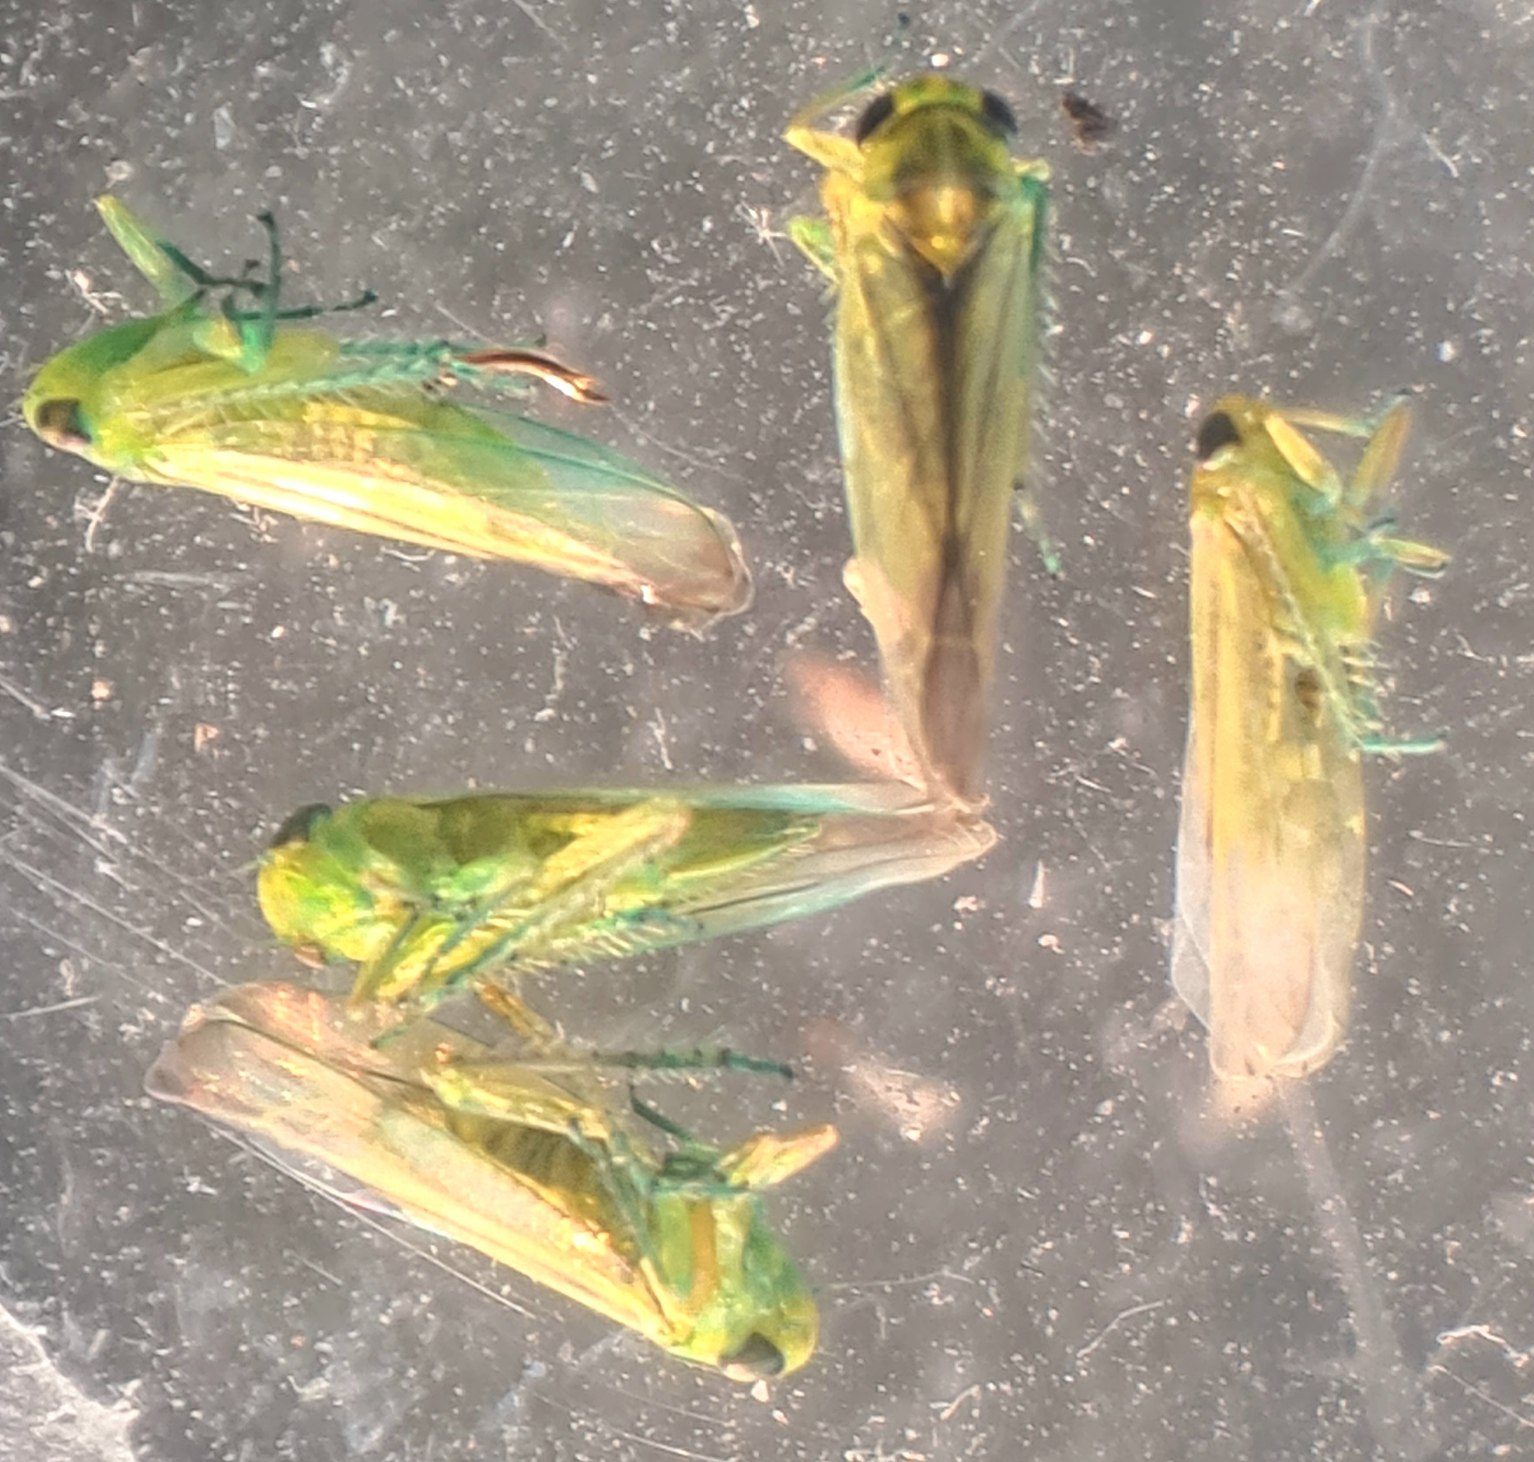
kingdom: Animalia
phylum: Arthropoda
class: Insecta
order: Hemiptera
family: Cicadellidae
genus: Kybos
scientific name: Kybos
